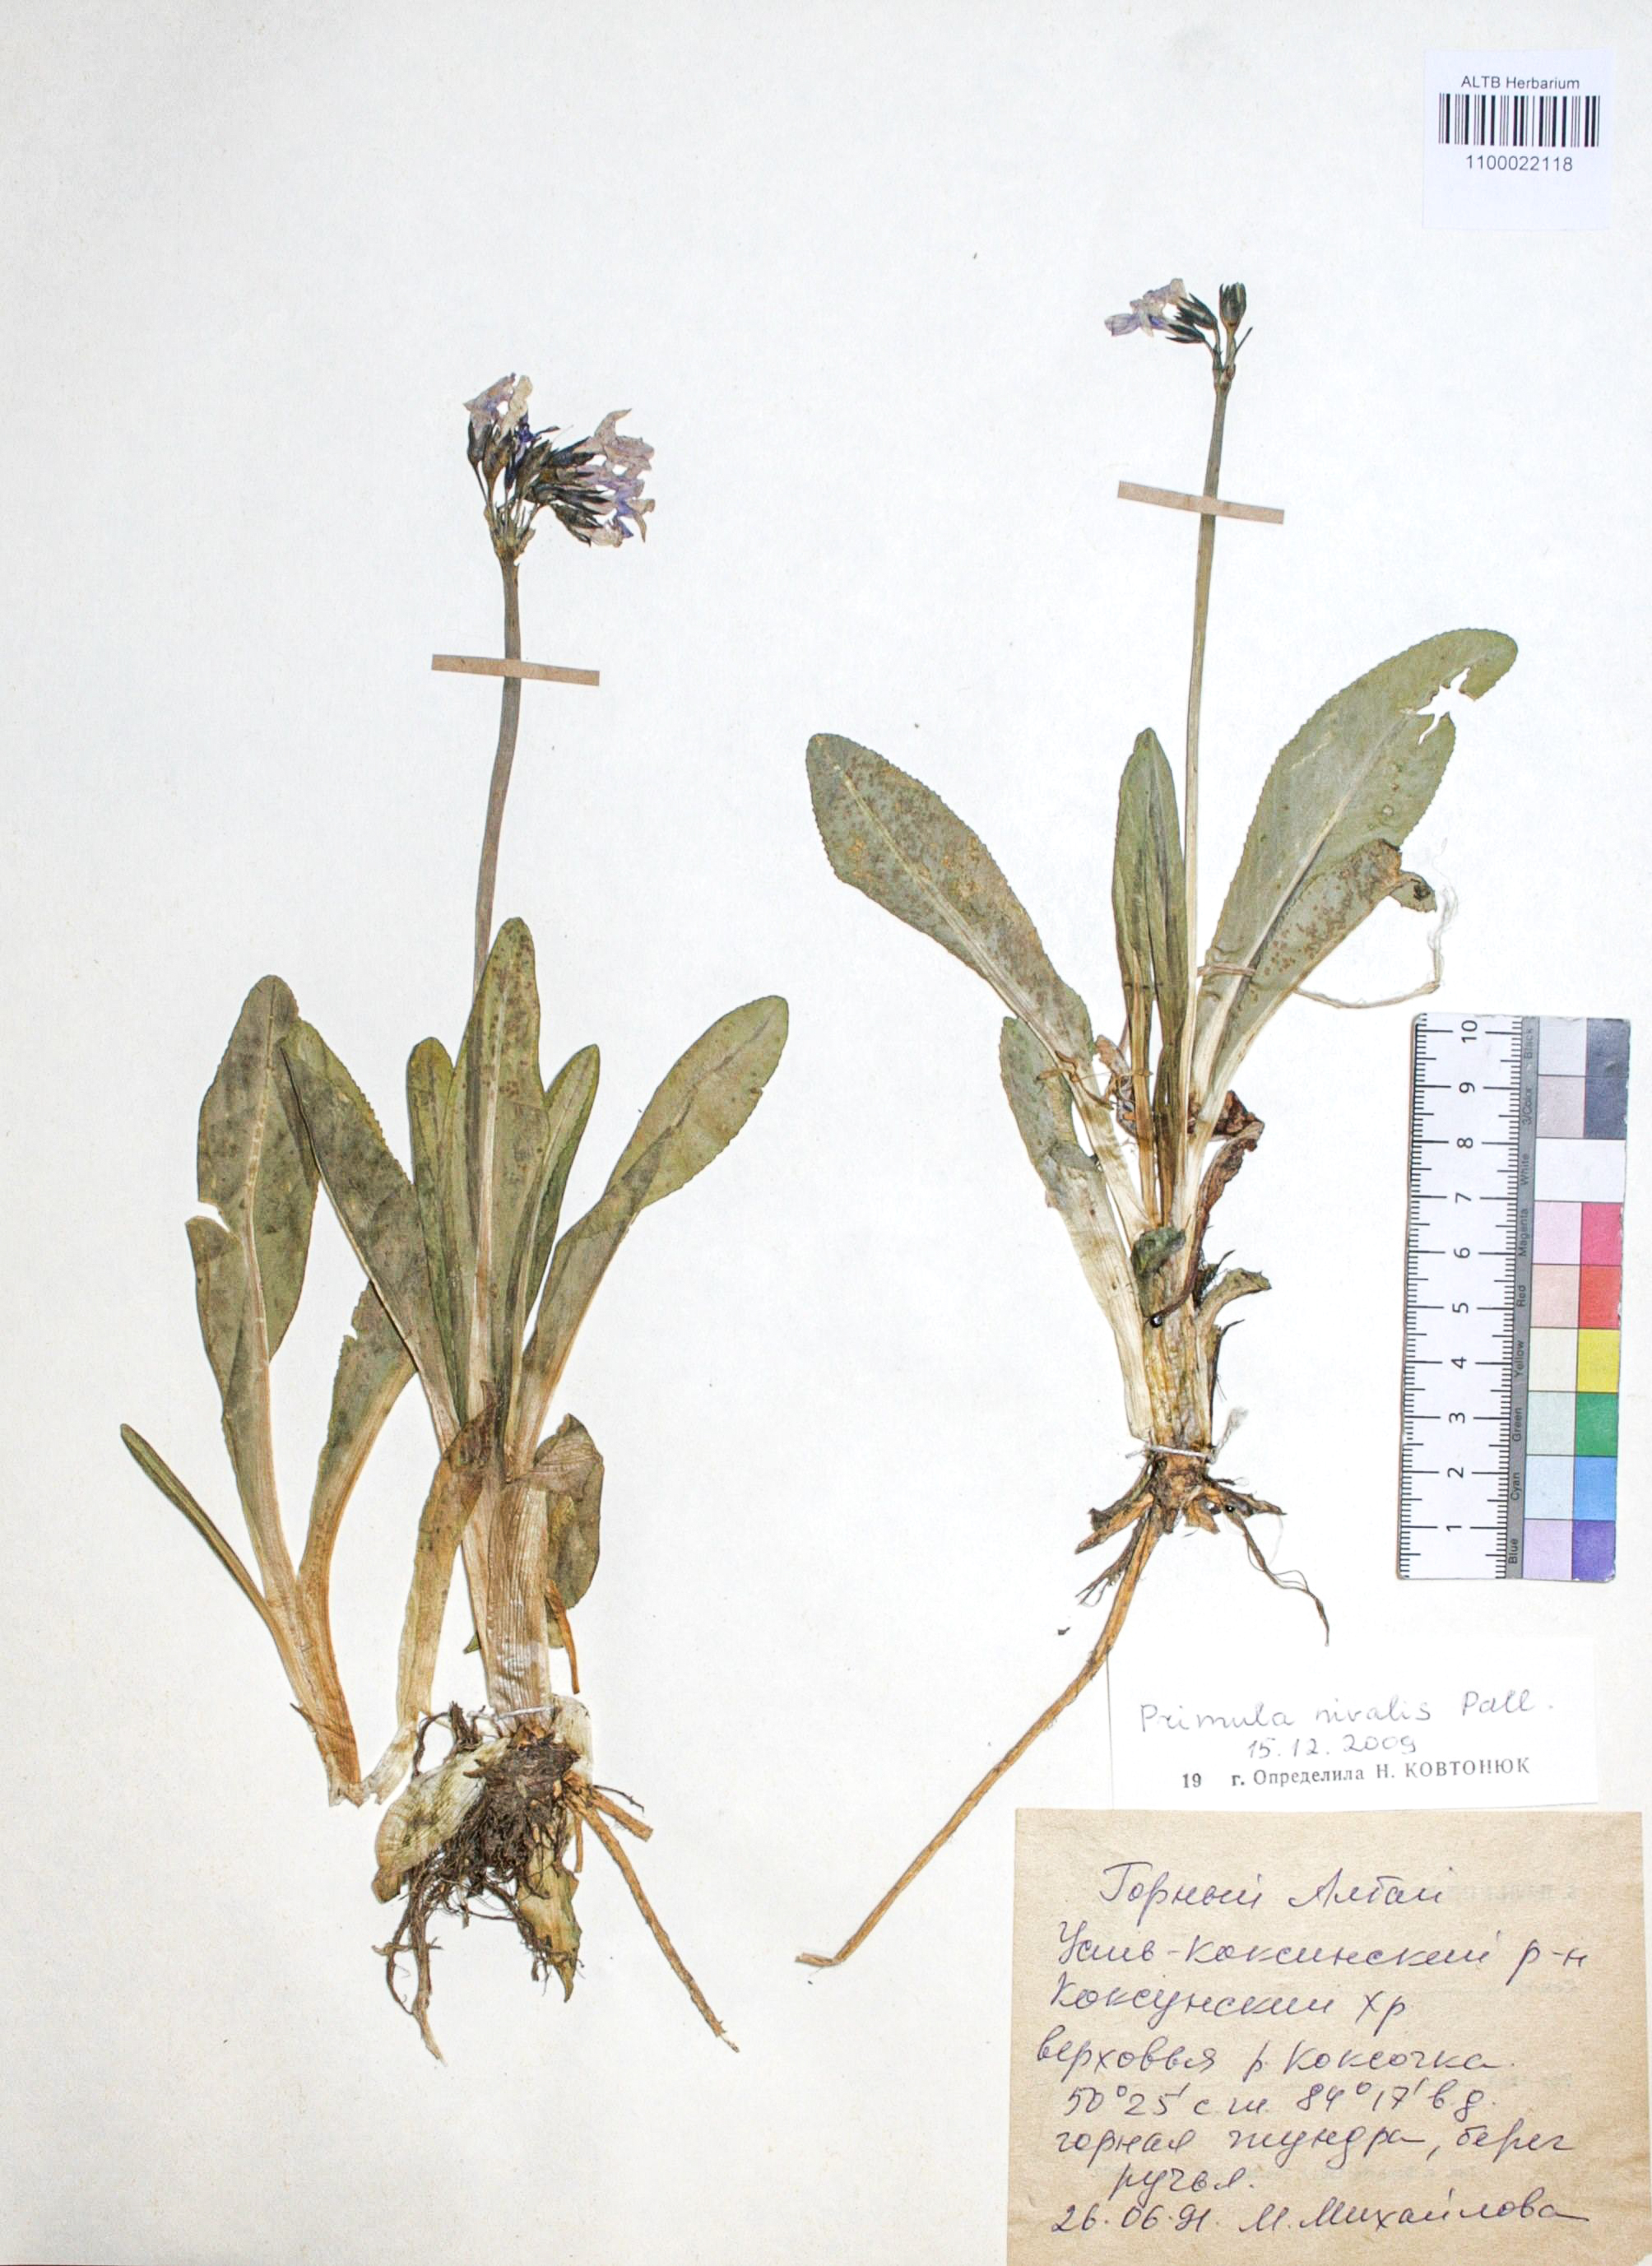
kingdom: Plantae
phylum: Tracheophyta
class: Magnoliopsida
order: Ericales
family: Primulaceae
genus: Primula
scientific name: Primula nivalis
